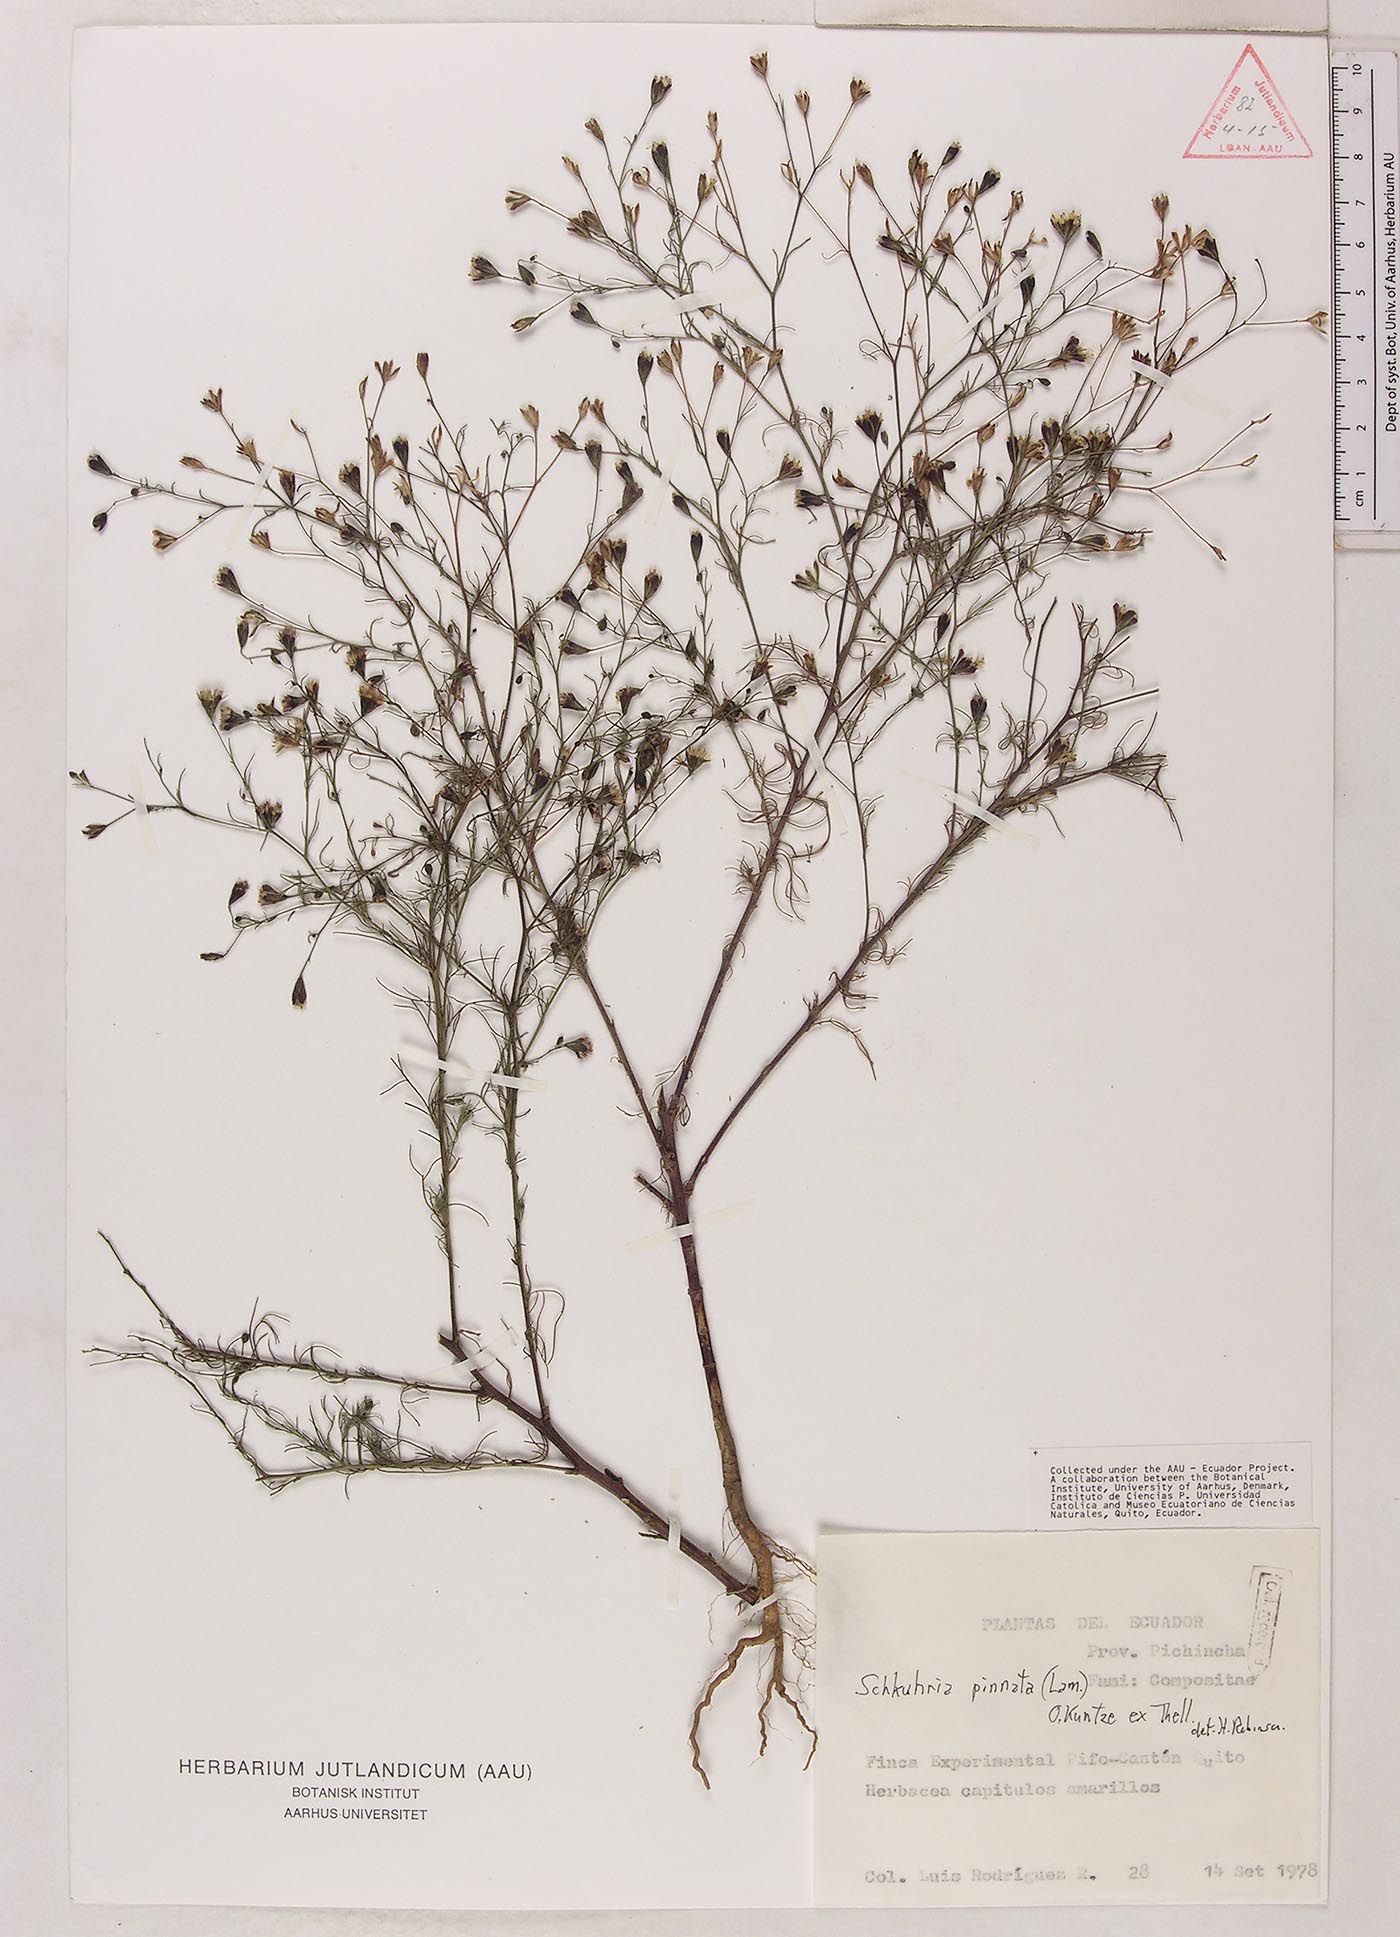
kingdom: Plantae
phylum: Tracheophyta
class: Magnoliopsida
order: Asterales
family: Asteraceae
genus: Schkuhria
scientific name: Schkuhria pinnata
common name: Dwarf marigold
